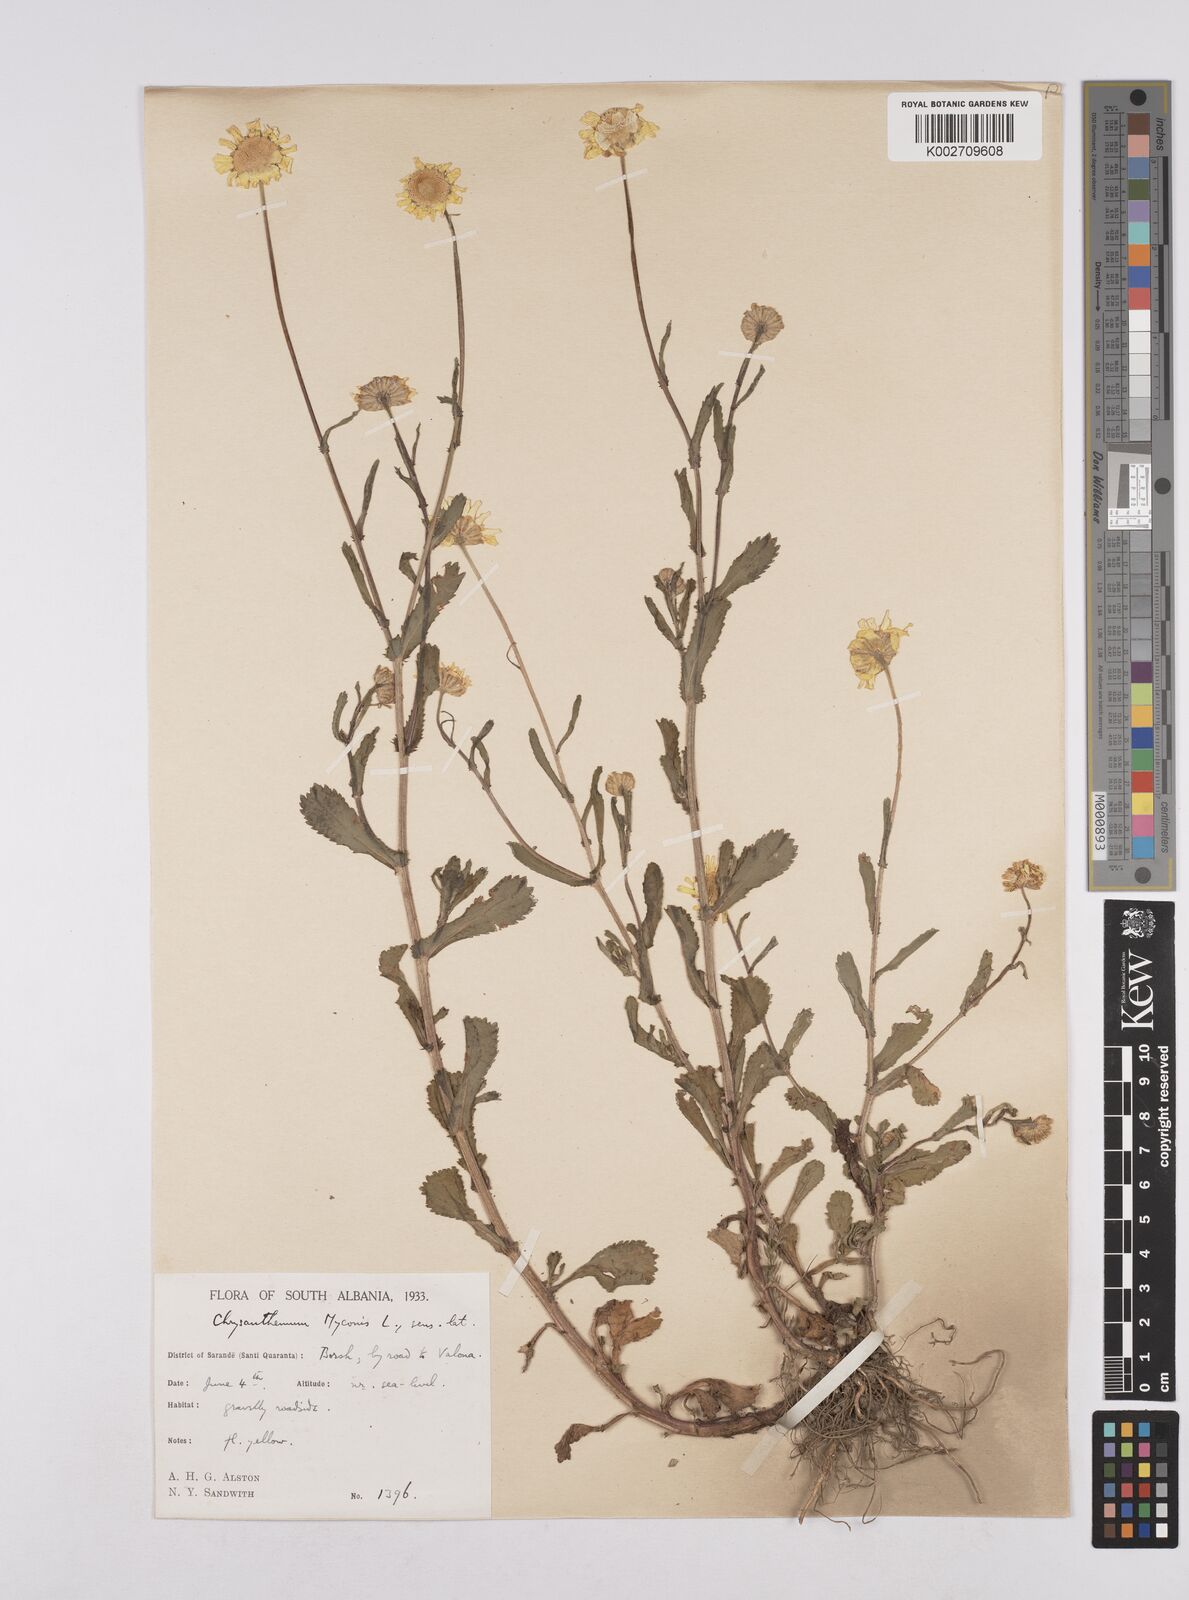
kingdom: Plantae
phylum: Tracheophyta
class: Magnoliopsida
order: Asterales
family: Asteraceae
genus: Coleostephus
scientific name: Coleostephus myconis
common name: Mediterranean marigold
